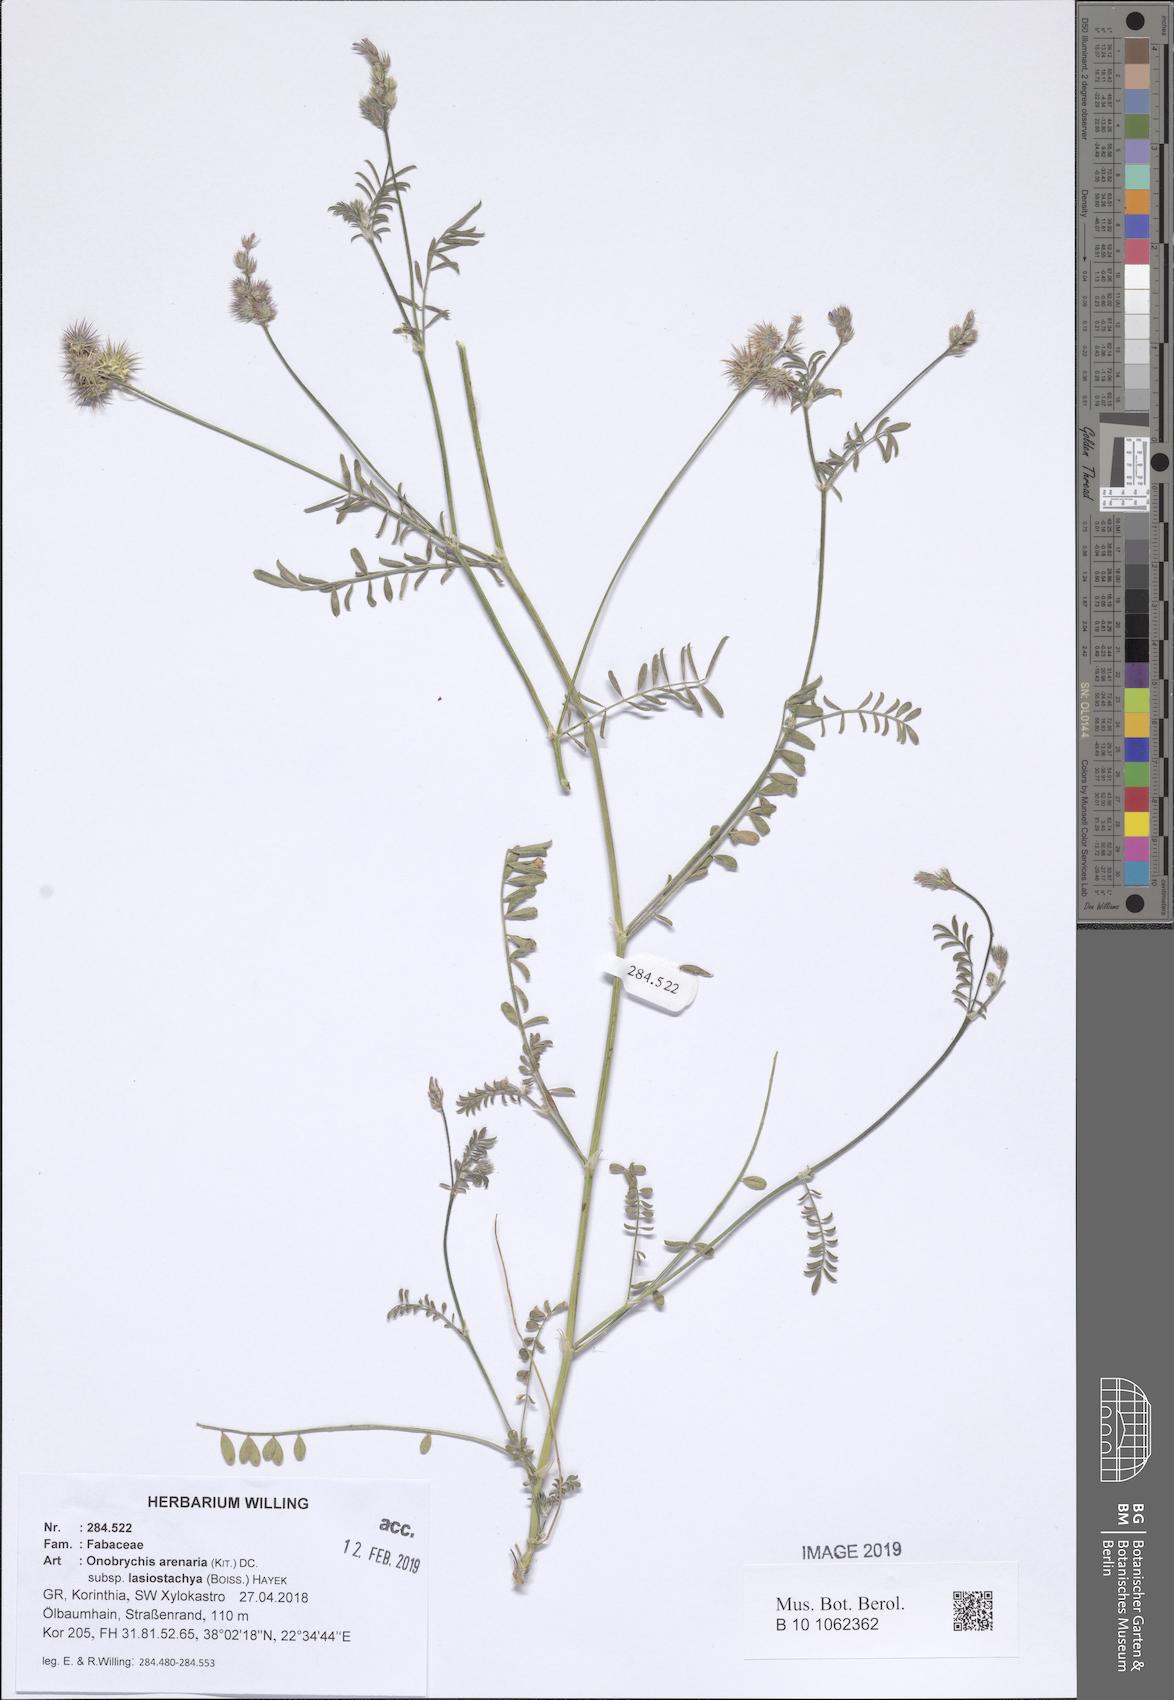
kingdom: Plantae
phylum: Tracheophyta
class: Magnoliopsida
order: Fabales
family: Fabaceae
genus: Onobrychis
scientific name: Onobrychis arenaria
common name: Sand esparcet
